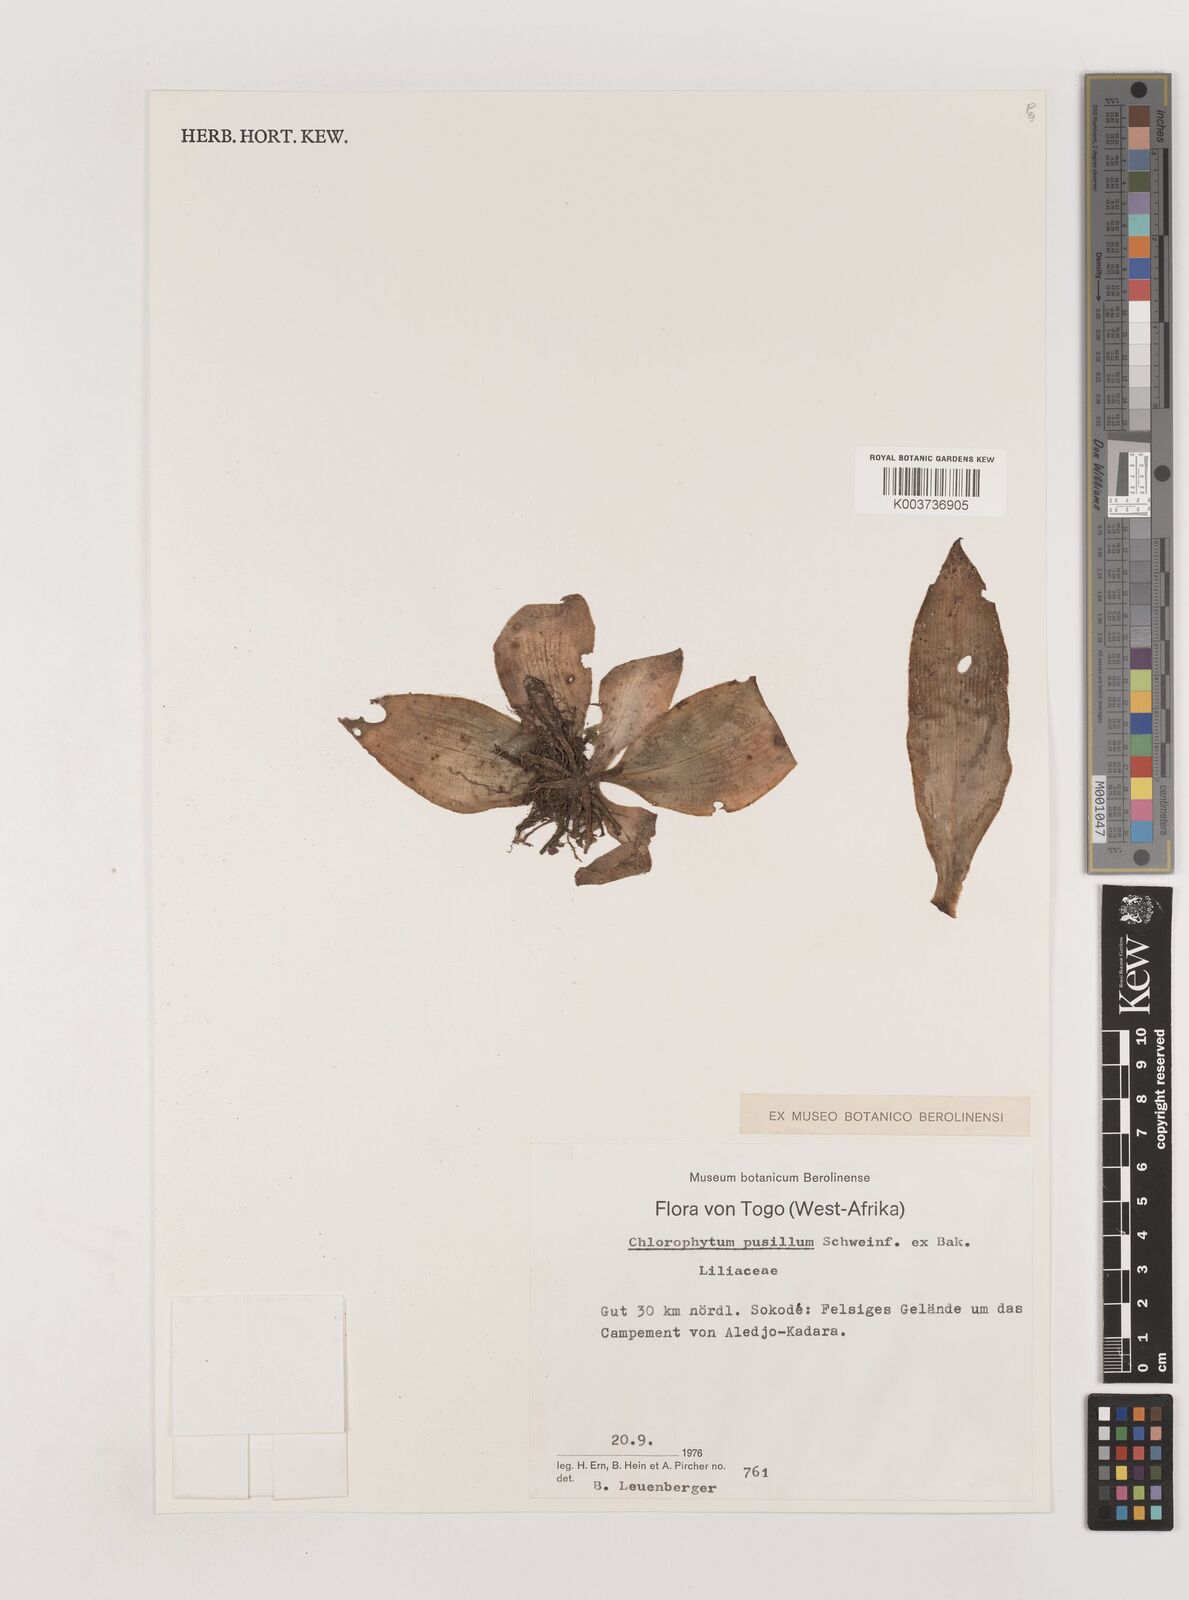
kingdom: Plantae
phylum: Tracheophyta
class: Liliopsida
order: Asparagales
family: Asparagaceae
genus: Chlorophytum
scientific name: Chlorophytum pusillum
